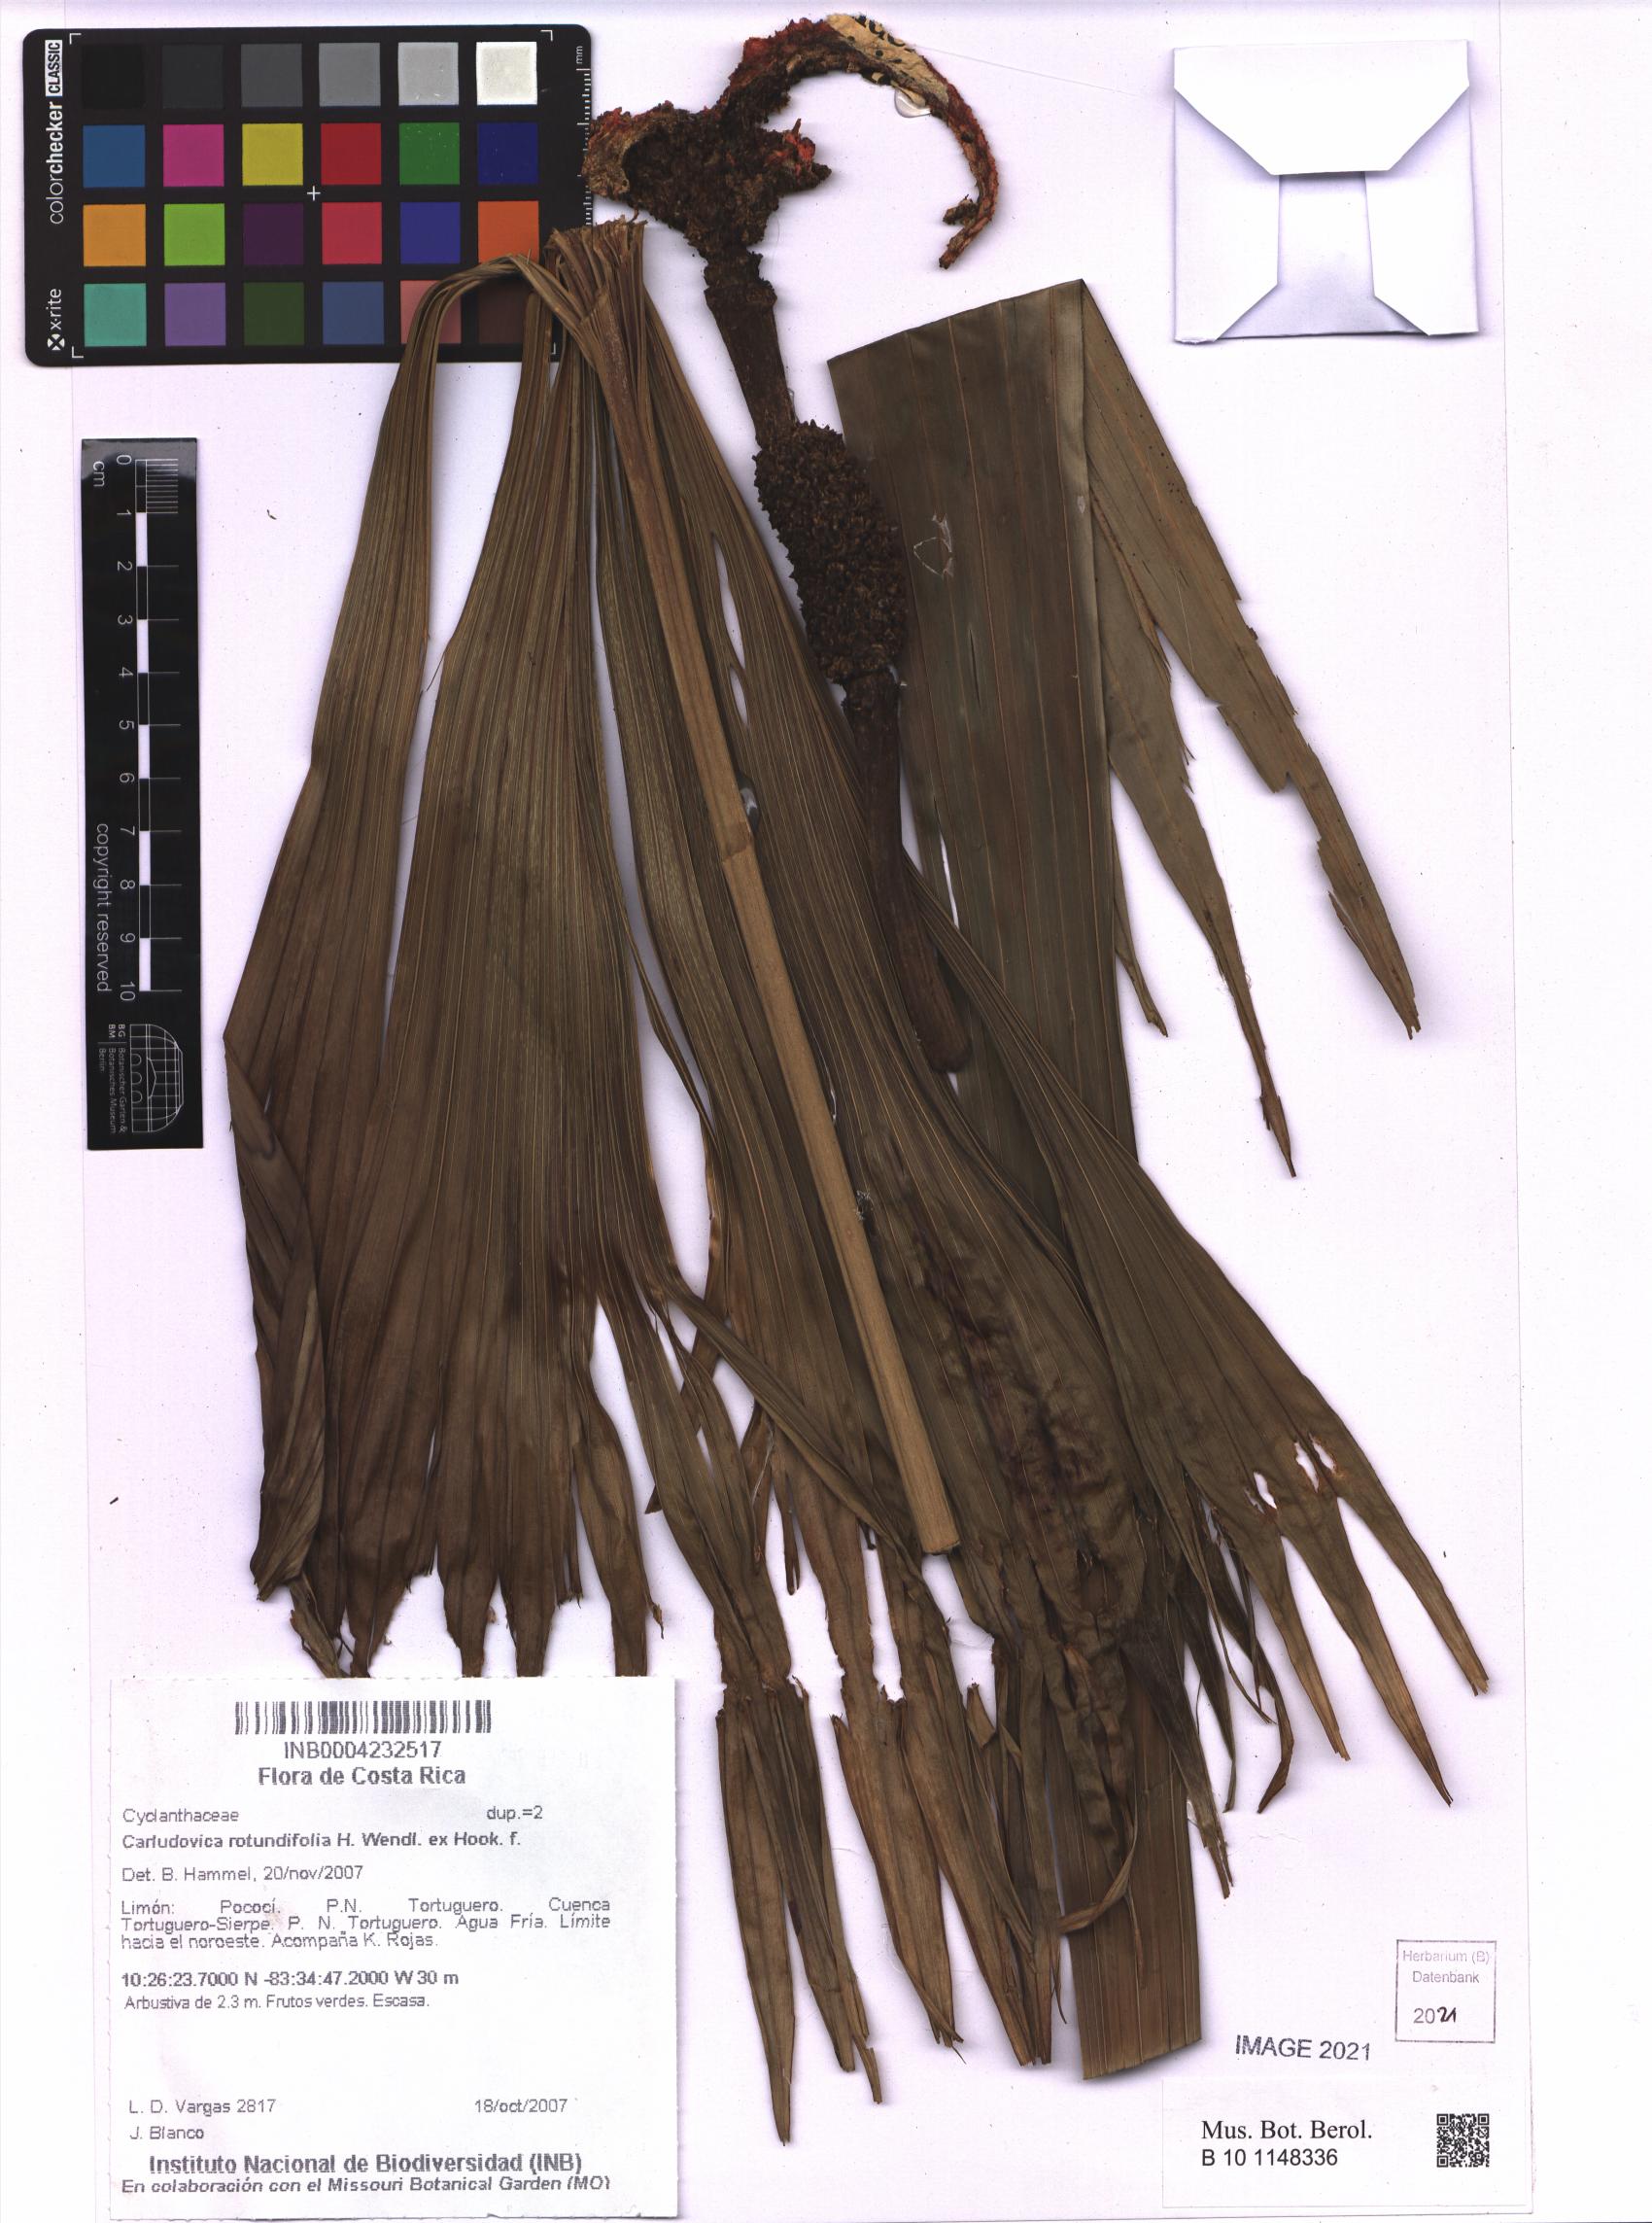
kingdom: Plantae
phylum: Tracheophyta
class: Liliopsida
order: Pandanales
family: Cyclanthaceae
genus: Carludovica
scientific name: Carludovica rotundifolia
